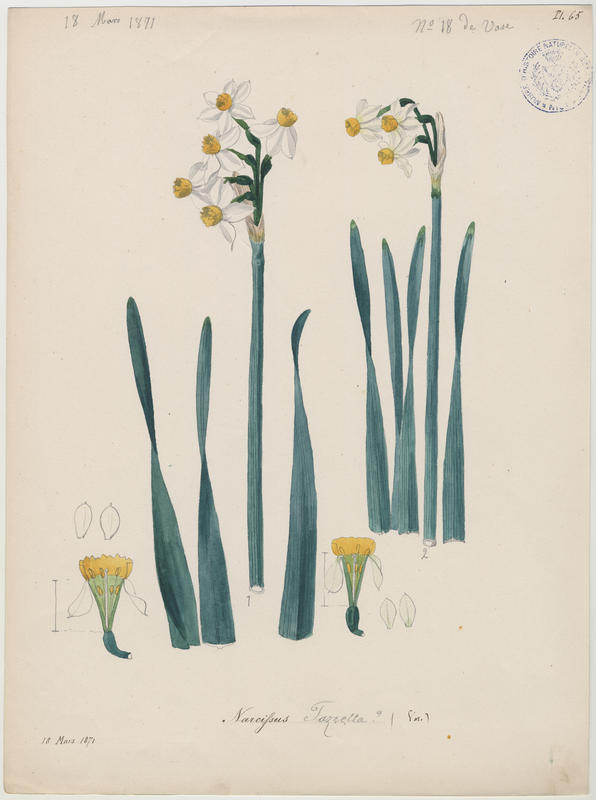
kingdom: Plantae
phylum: Tracheophyta
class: Liliopsida
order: Asparagales
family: Amaryllidaceae
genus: Narcissus
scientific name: Narcissus tazetta
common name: Bunch-flowered daffodil
